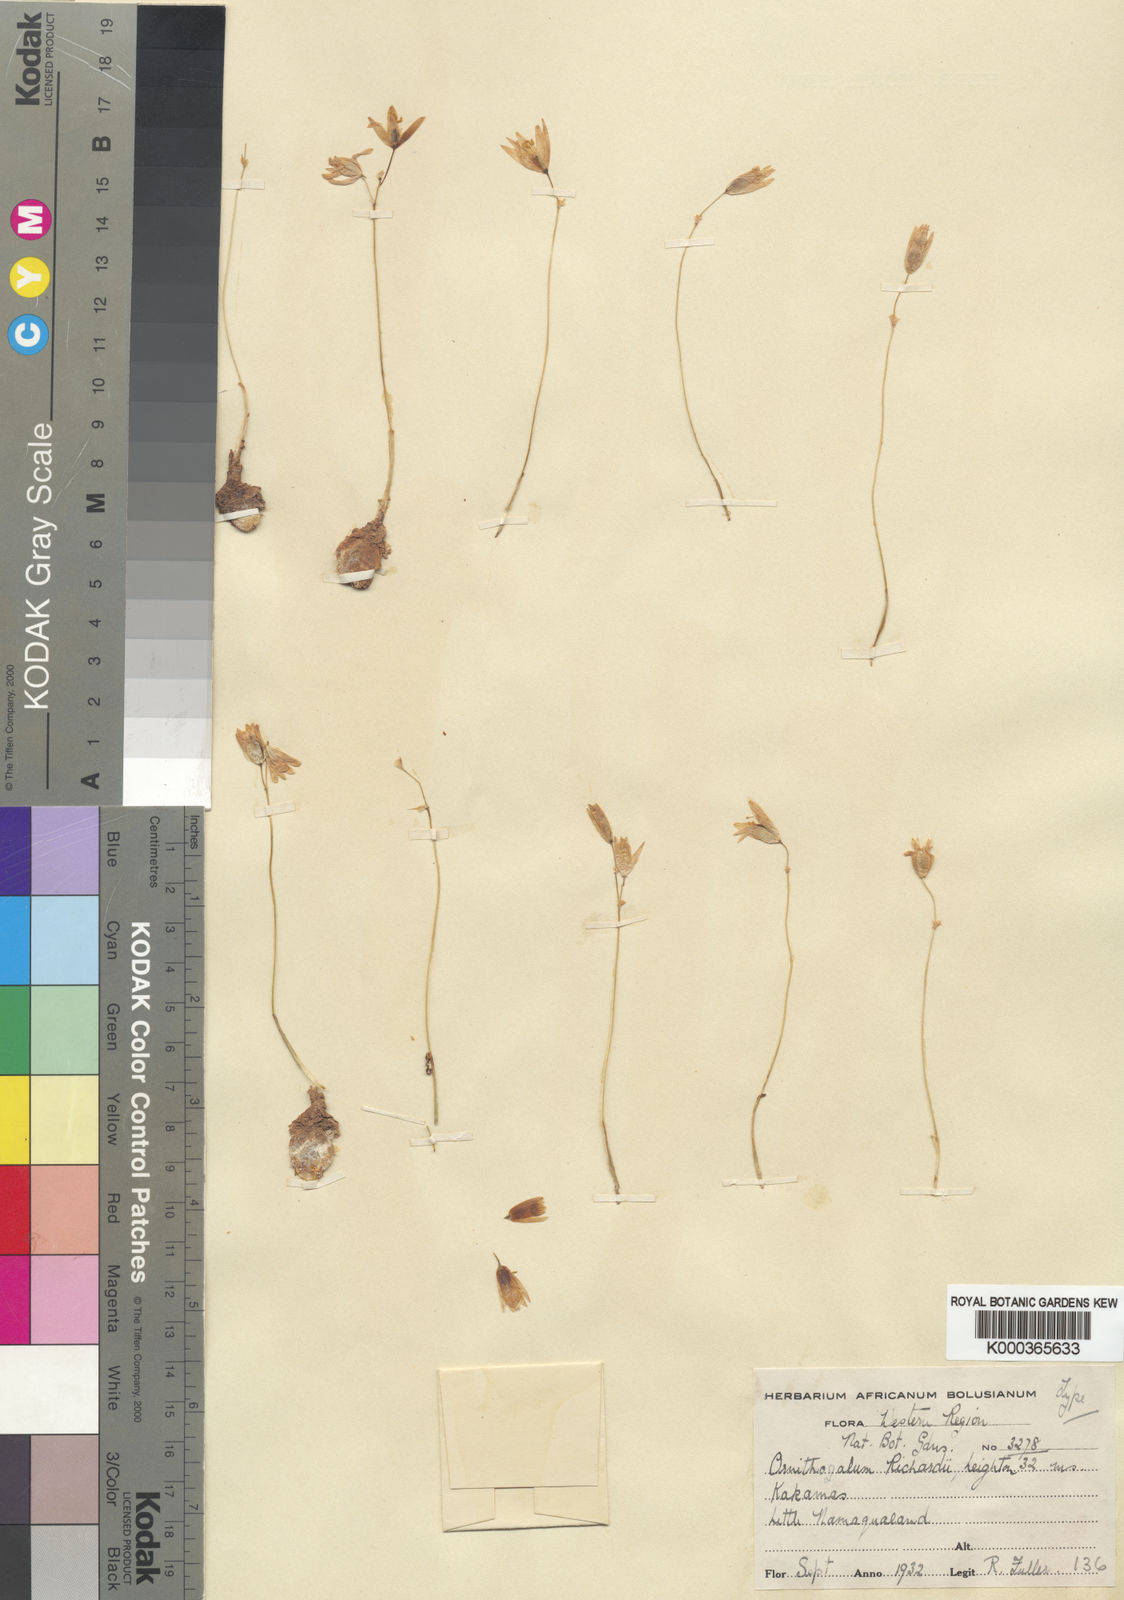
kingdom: Plantae
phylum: Tracheophyta
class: Liliopsida
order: Asparagales
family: Asparagaceae
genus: Ornithogalum
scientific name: Ornithogalum deltoideum
